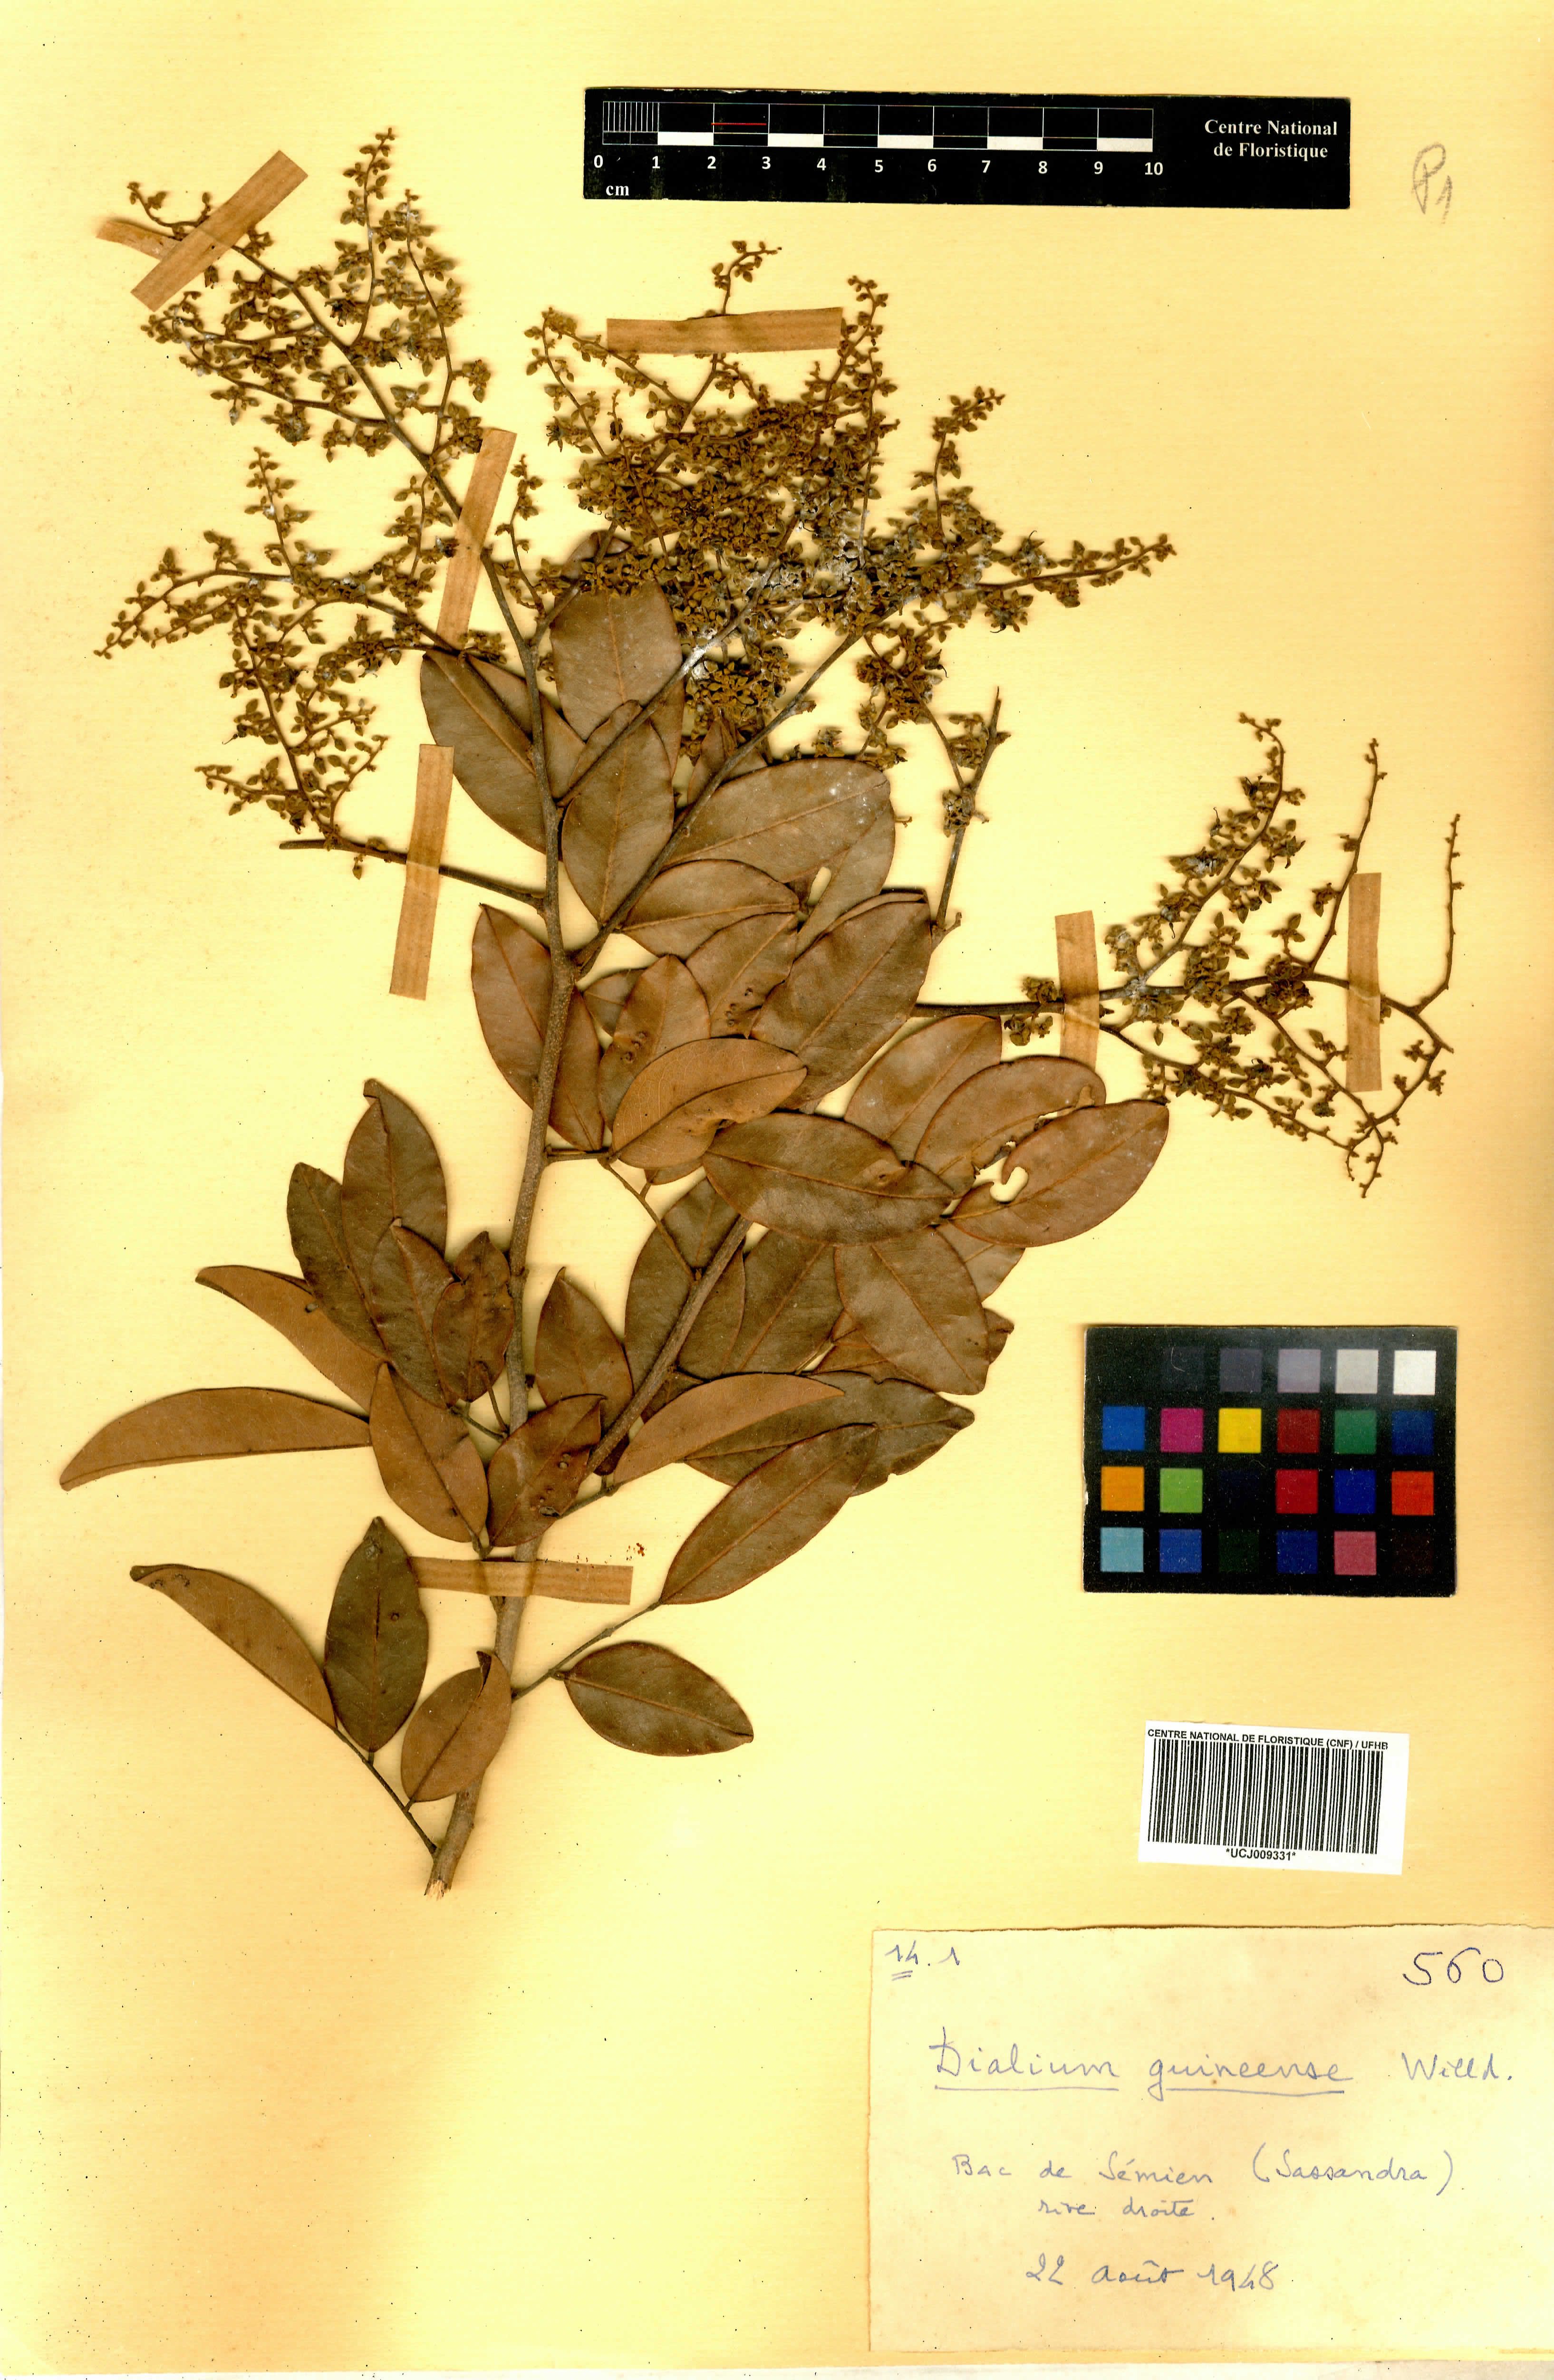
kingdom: Plantae
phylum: Tracheophyta
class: Magnoliopsida
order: Fabales
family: Fabaceae
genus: Dialium
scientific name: Dialium guineense
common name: Sierra leone-tamarind
